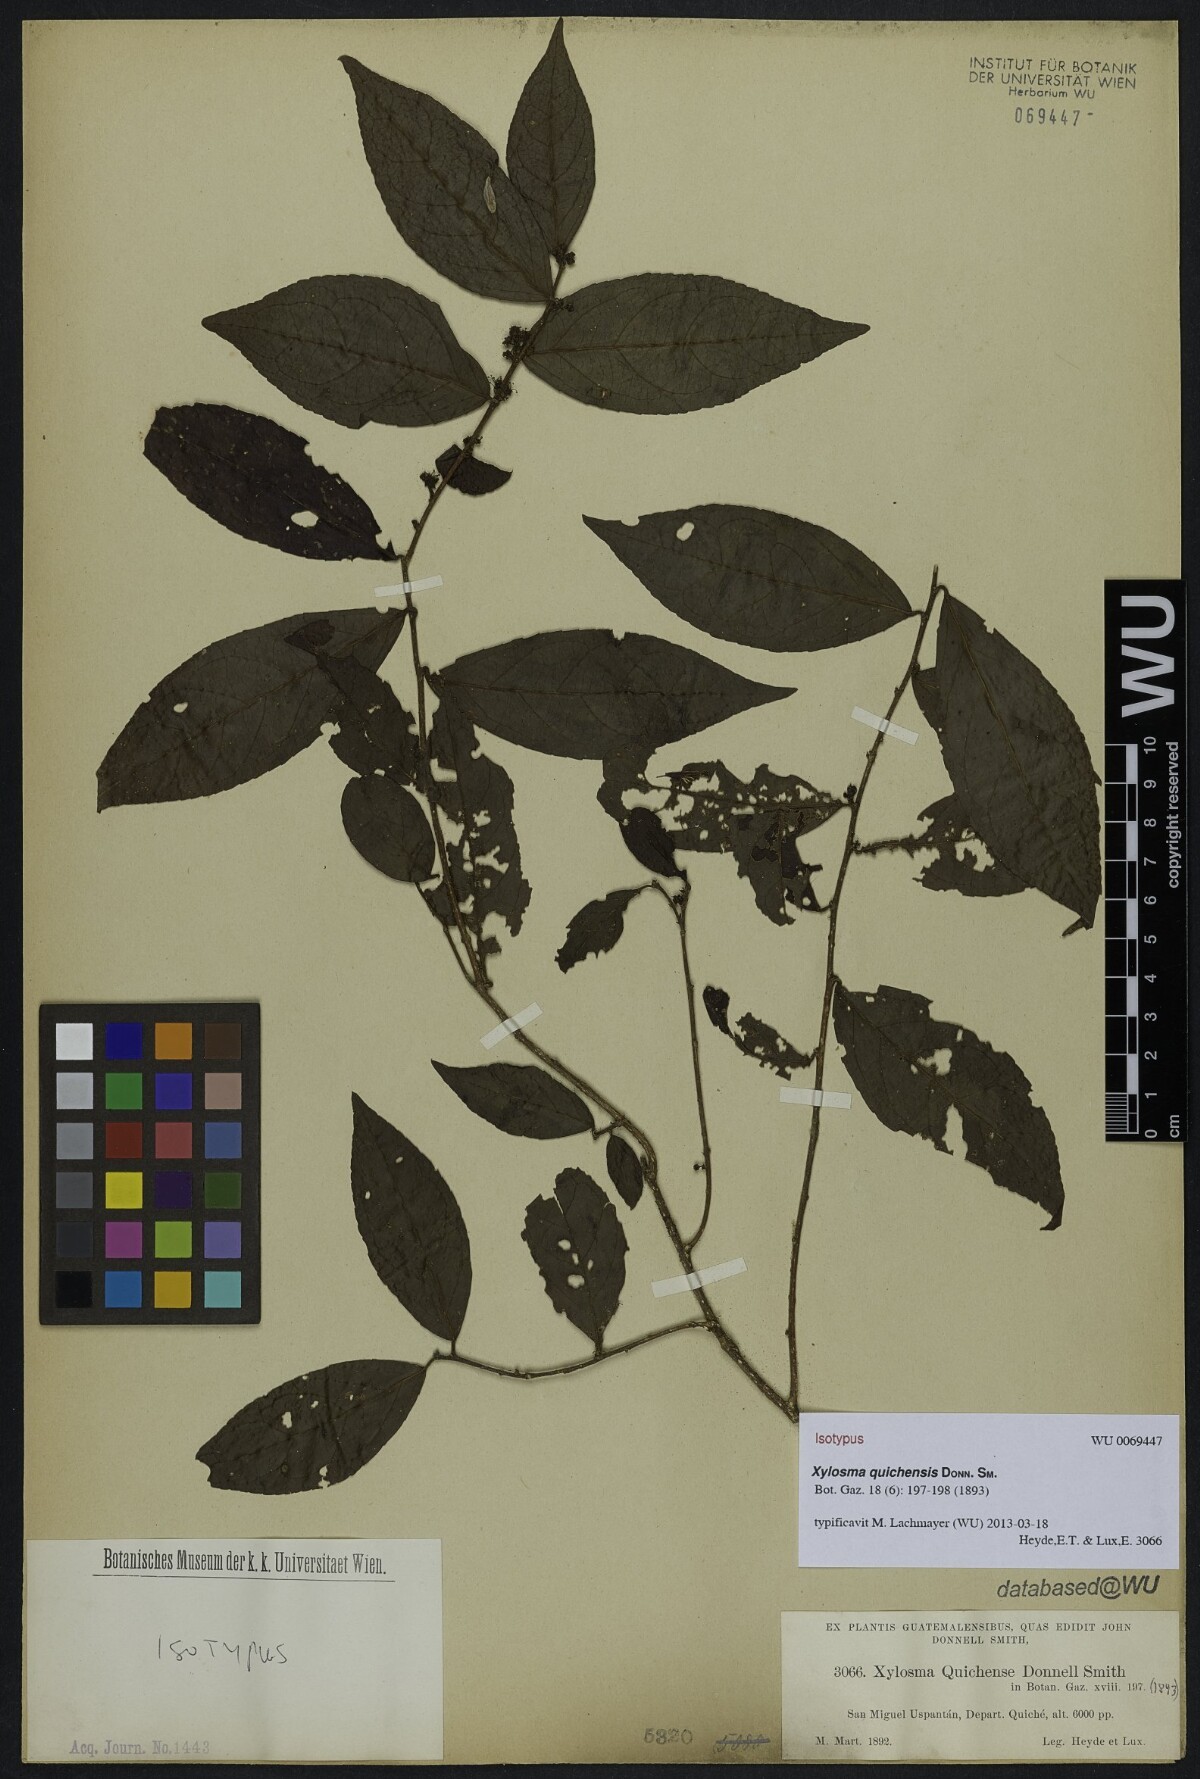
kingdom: Plantae
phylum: Tracheophyta
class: Magnoliopsida
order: Malpighiales
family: Salicaceae
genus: Xylosma
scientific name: Xylosma quichensis
